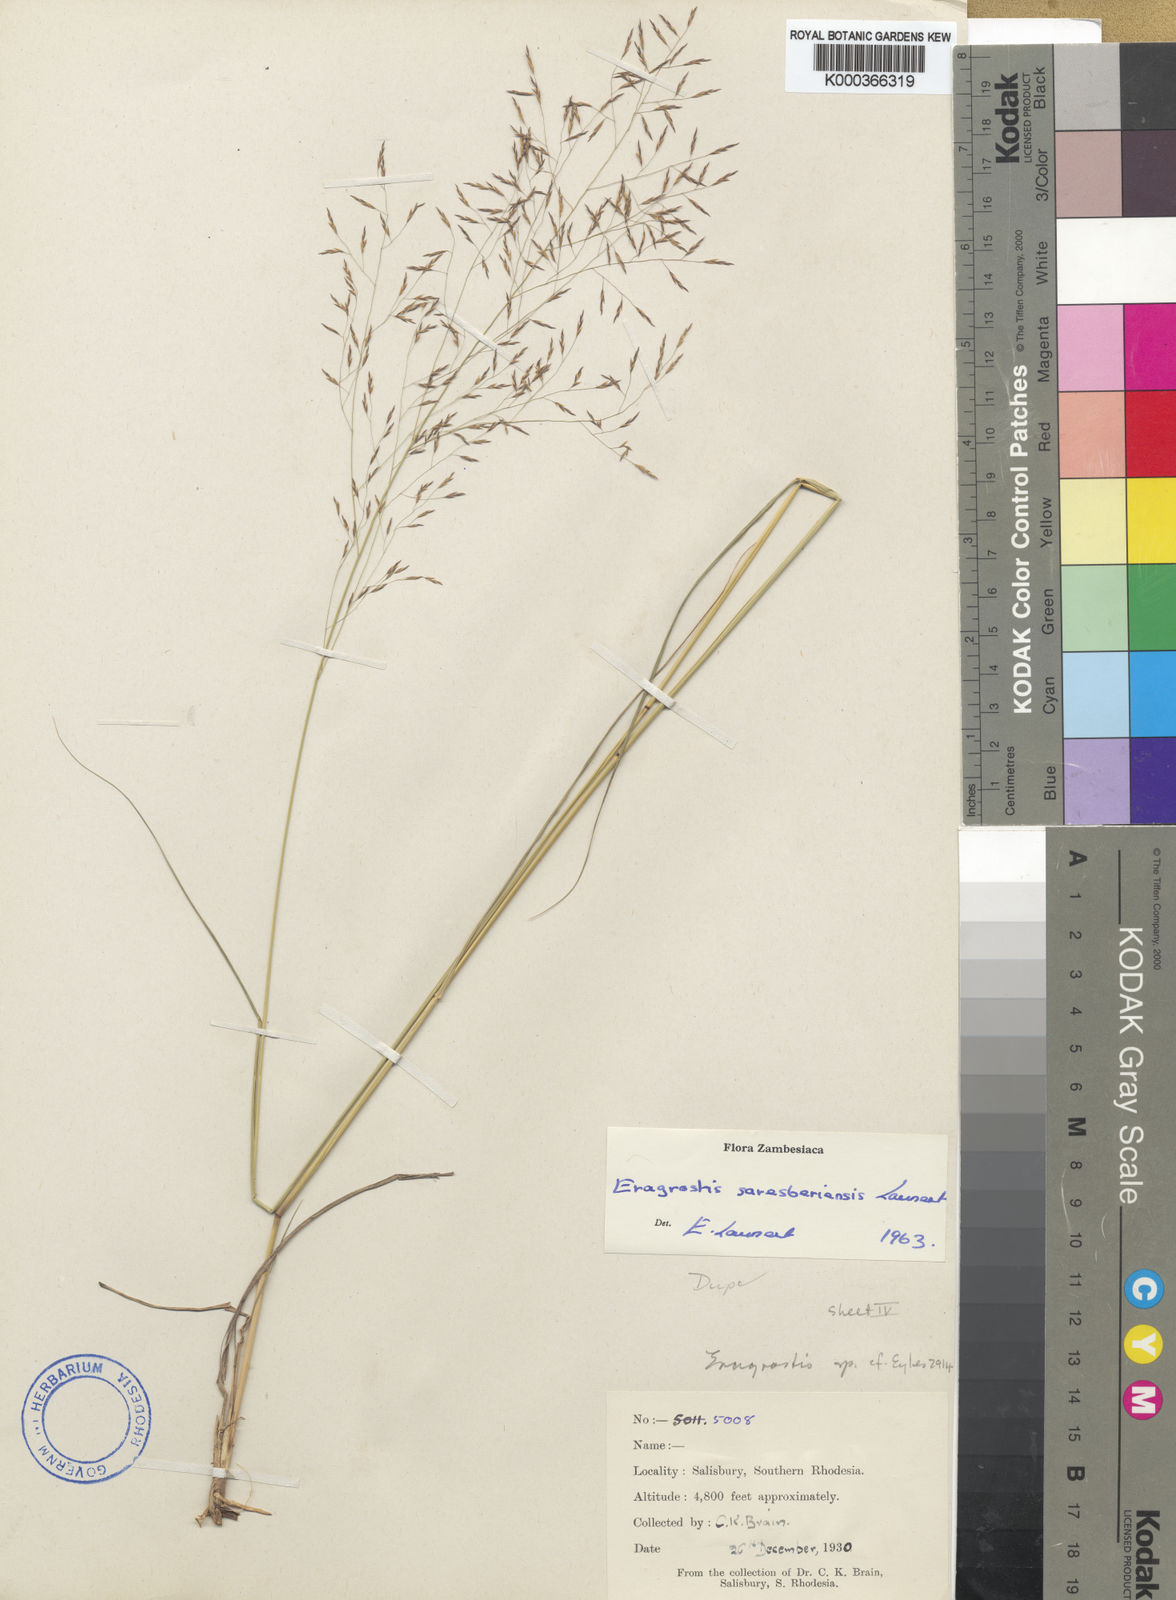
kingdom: Plantae
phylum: Tracheophyta
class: Liliopsida
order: Poales
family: Poaceae
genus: Eragrostis
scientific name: Eragrostis saresberiensis
